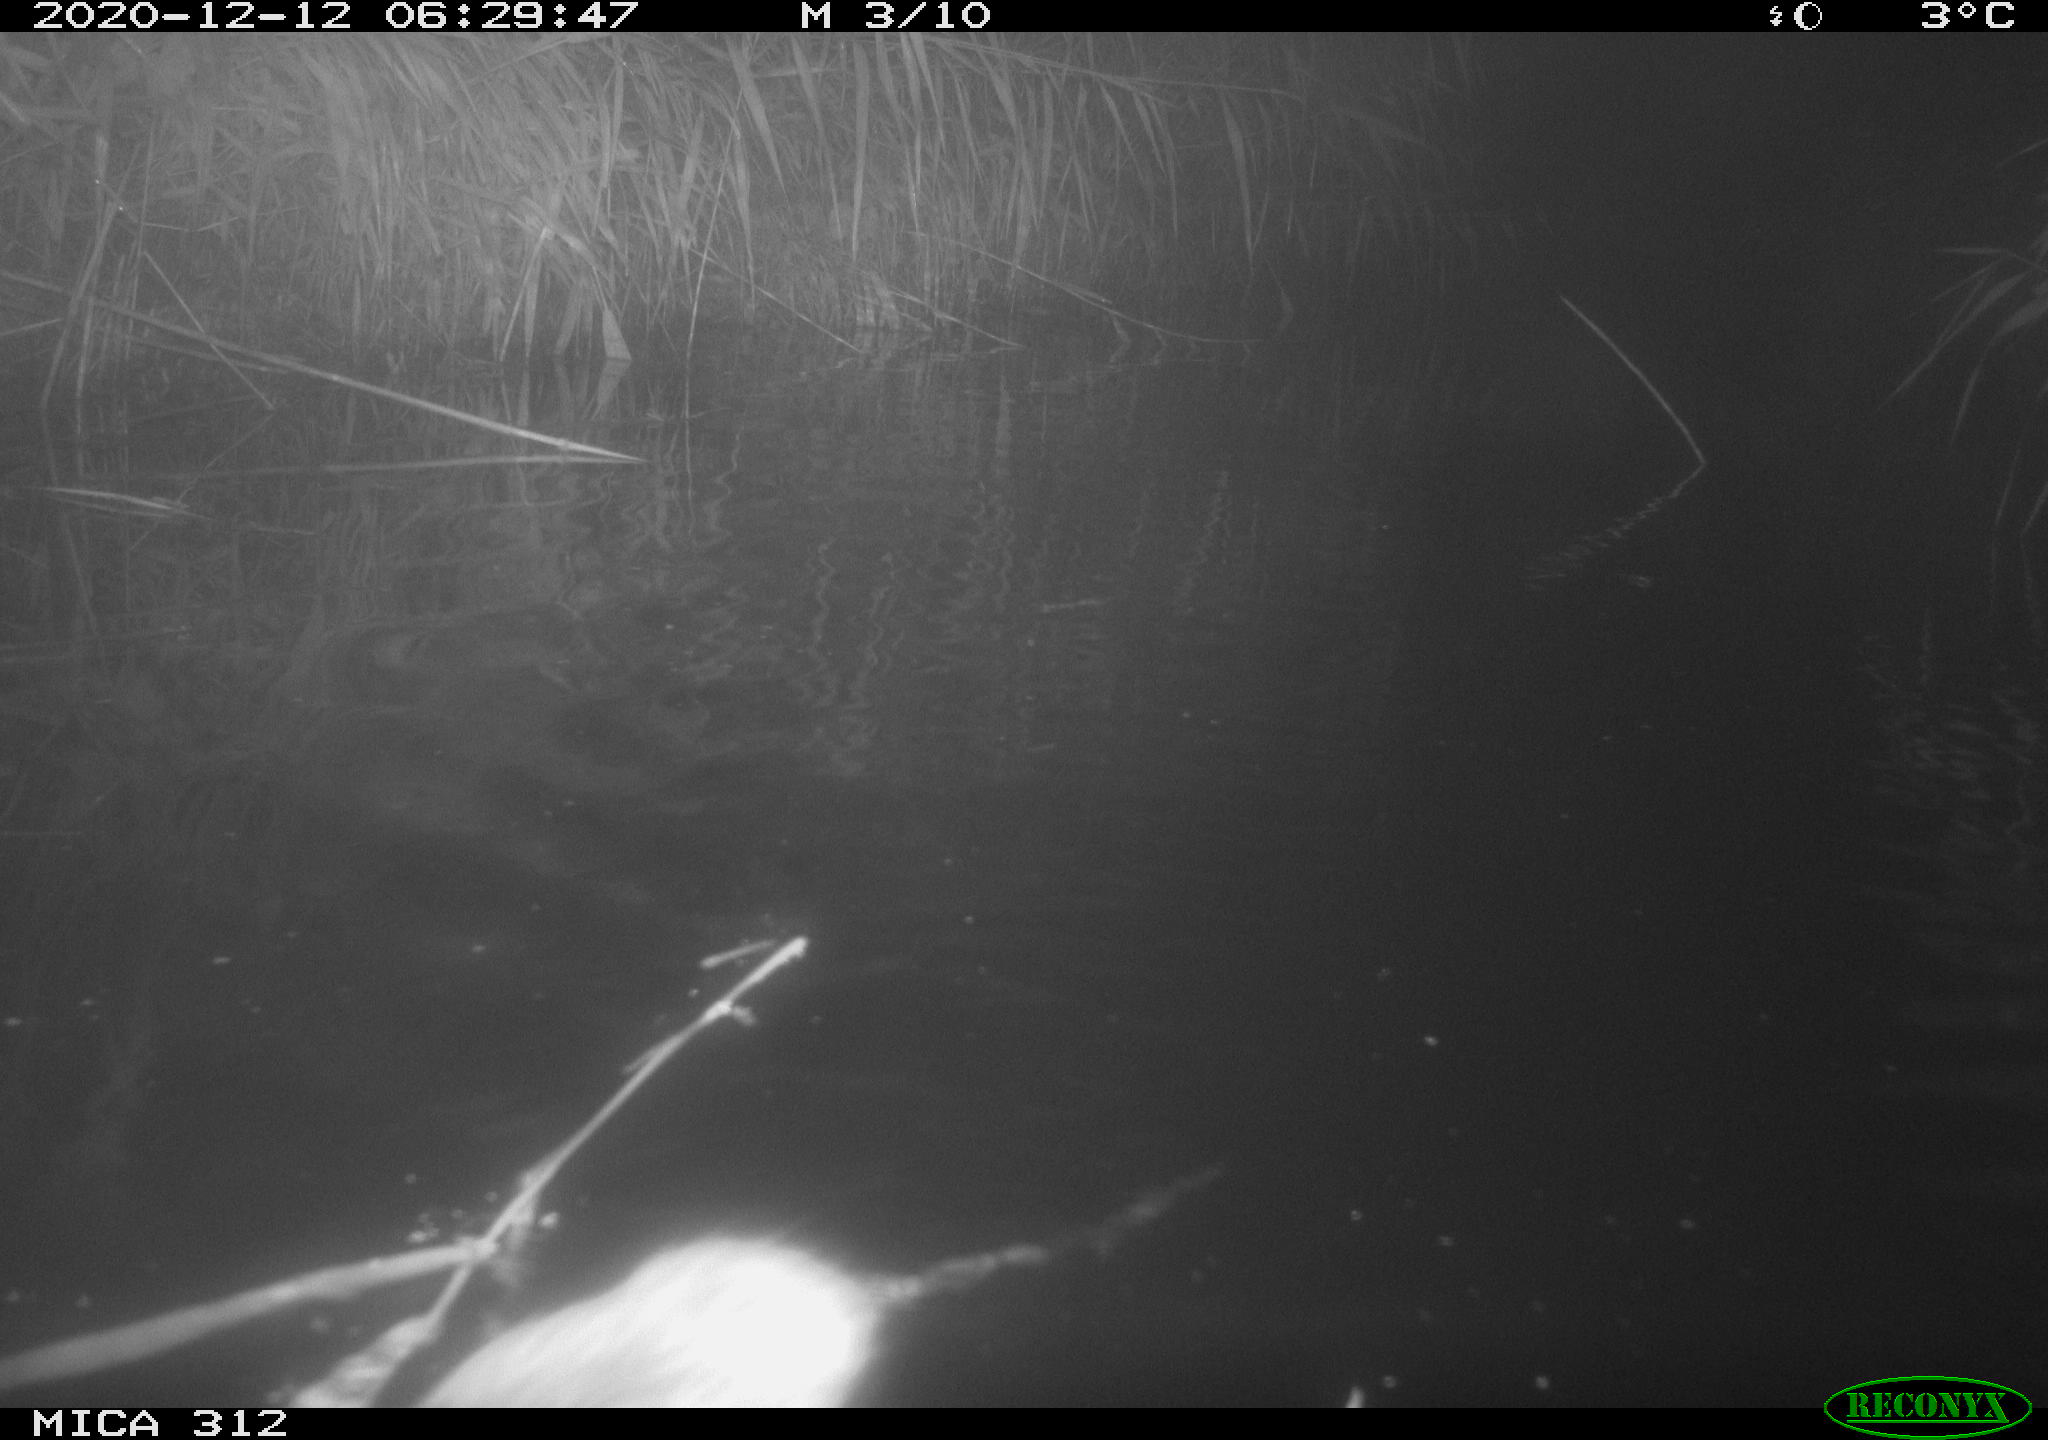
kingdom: Animalia
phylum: Chordata
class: Mammalia
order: Rodentia
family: Muridae
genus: Rattus
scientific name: Rattus norvegicus
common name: Brown rat
